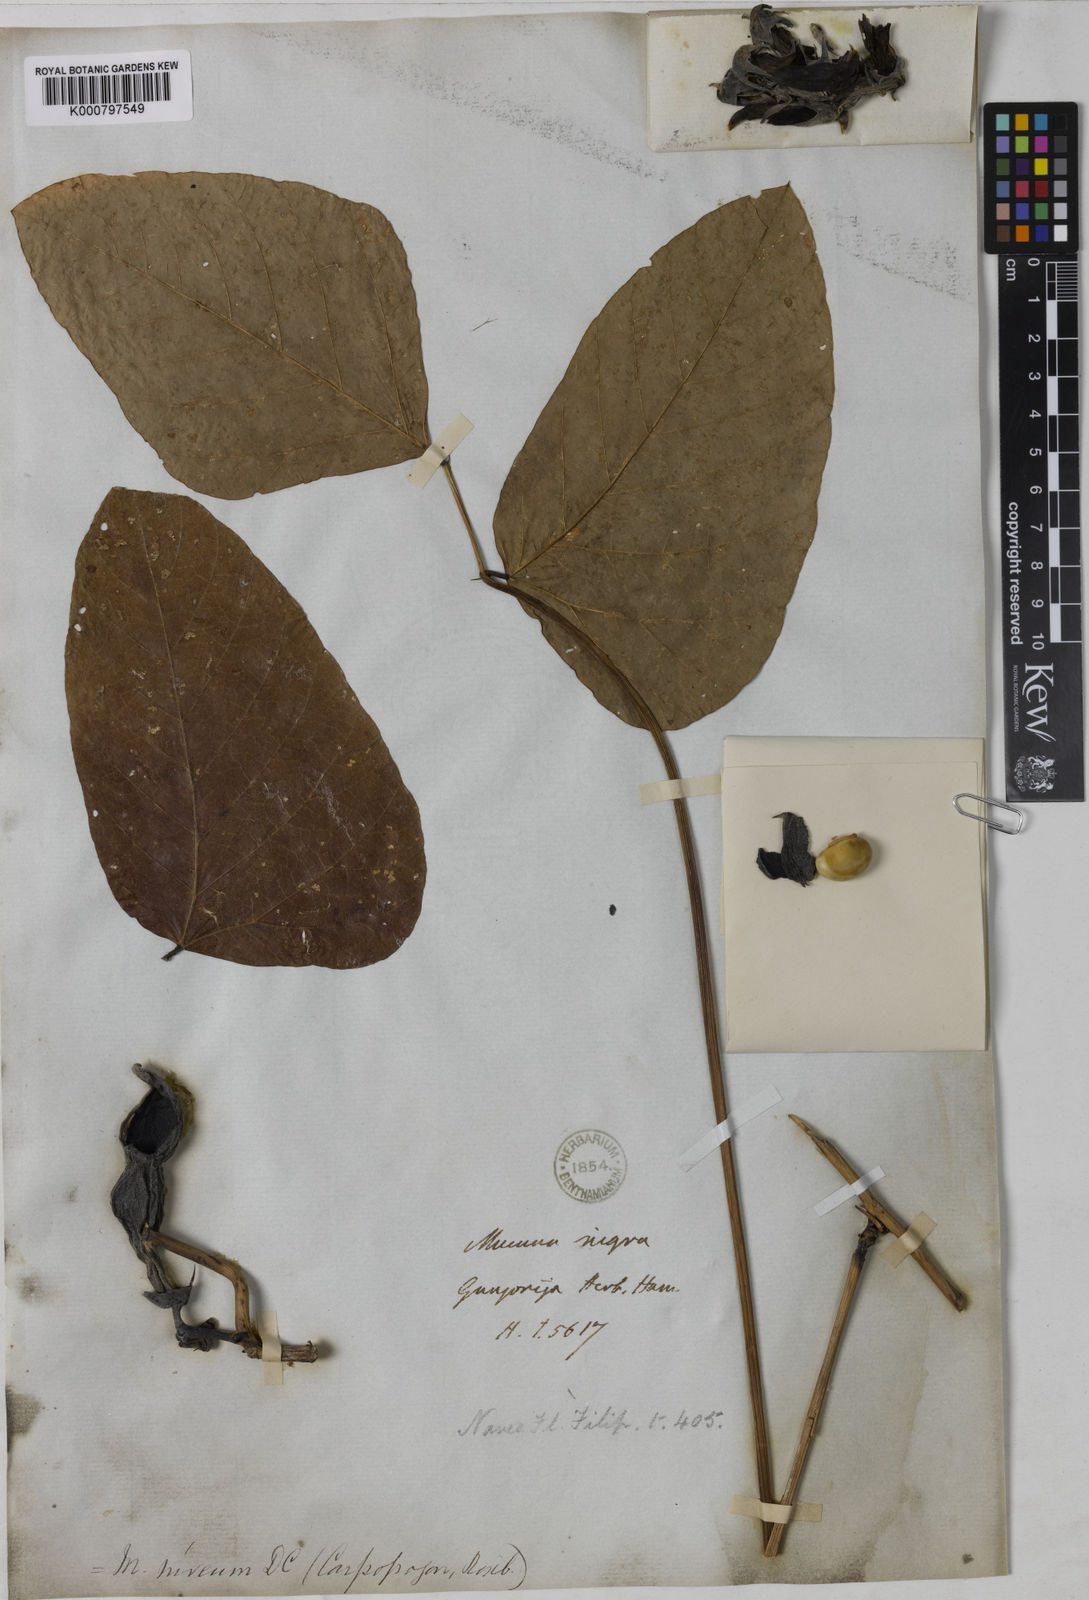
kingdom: Plantae
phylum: Tracheophyta
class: Magnoliopsida
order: Fabales
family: Fabaceae
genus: Mucuna
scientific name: Mucuna pruriens
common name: Cow-itch
